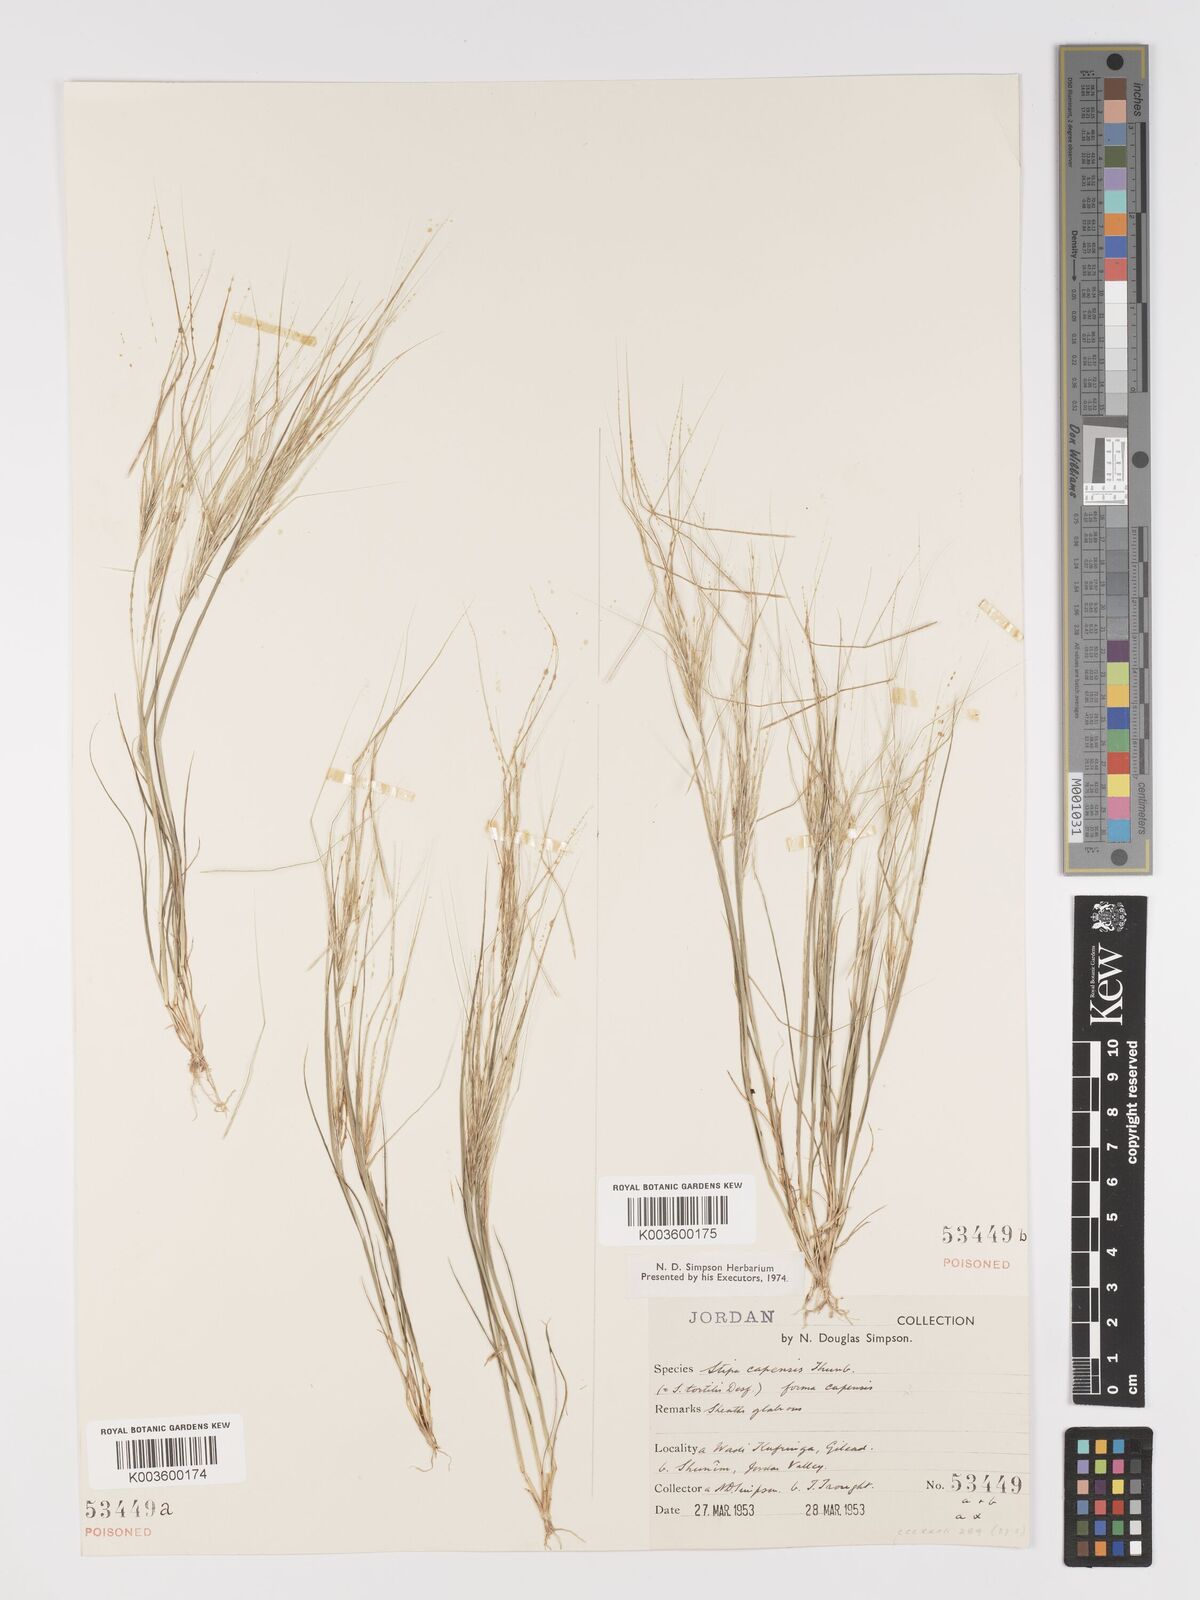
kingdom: Plantae
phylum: Tracheophyta
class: Liliopsida
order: Poales
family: Poaceae
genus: Stipellula
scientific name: Stipellula capensis
